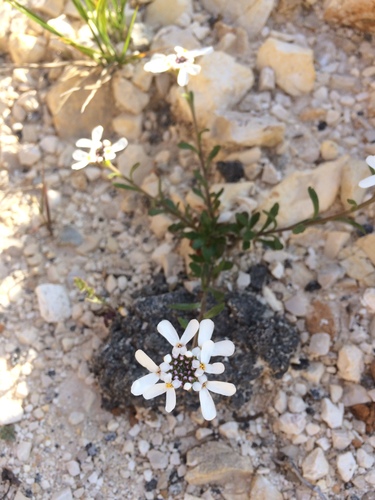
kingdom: Plantae
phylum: Tracheophyta
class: Magnoliopsida
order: Brassicales
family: Brassicaceae
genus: Iberis
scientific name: Iberis procumbens
